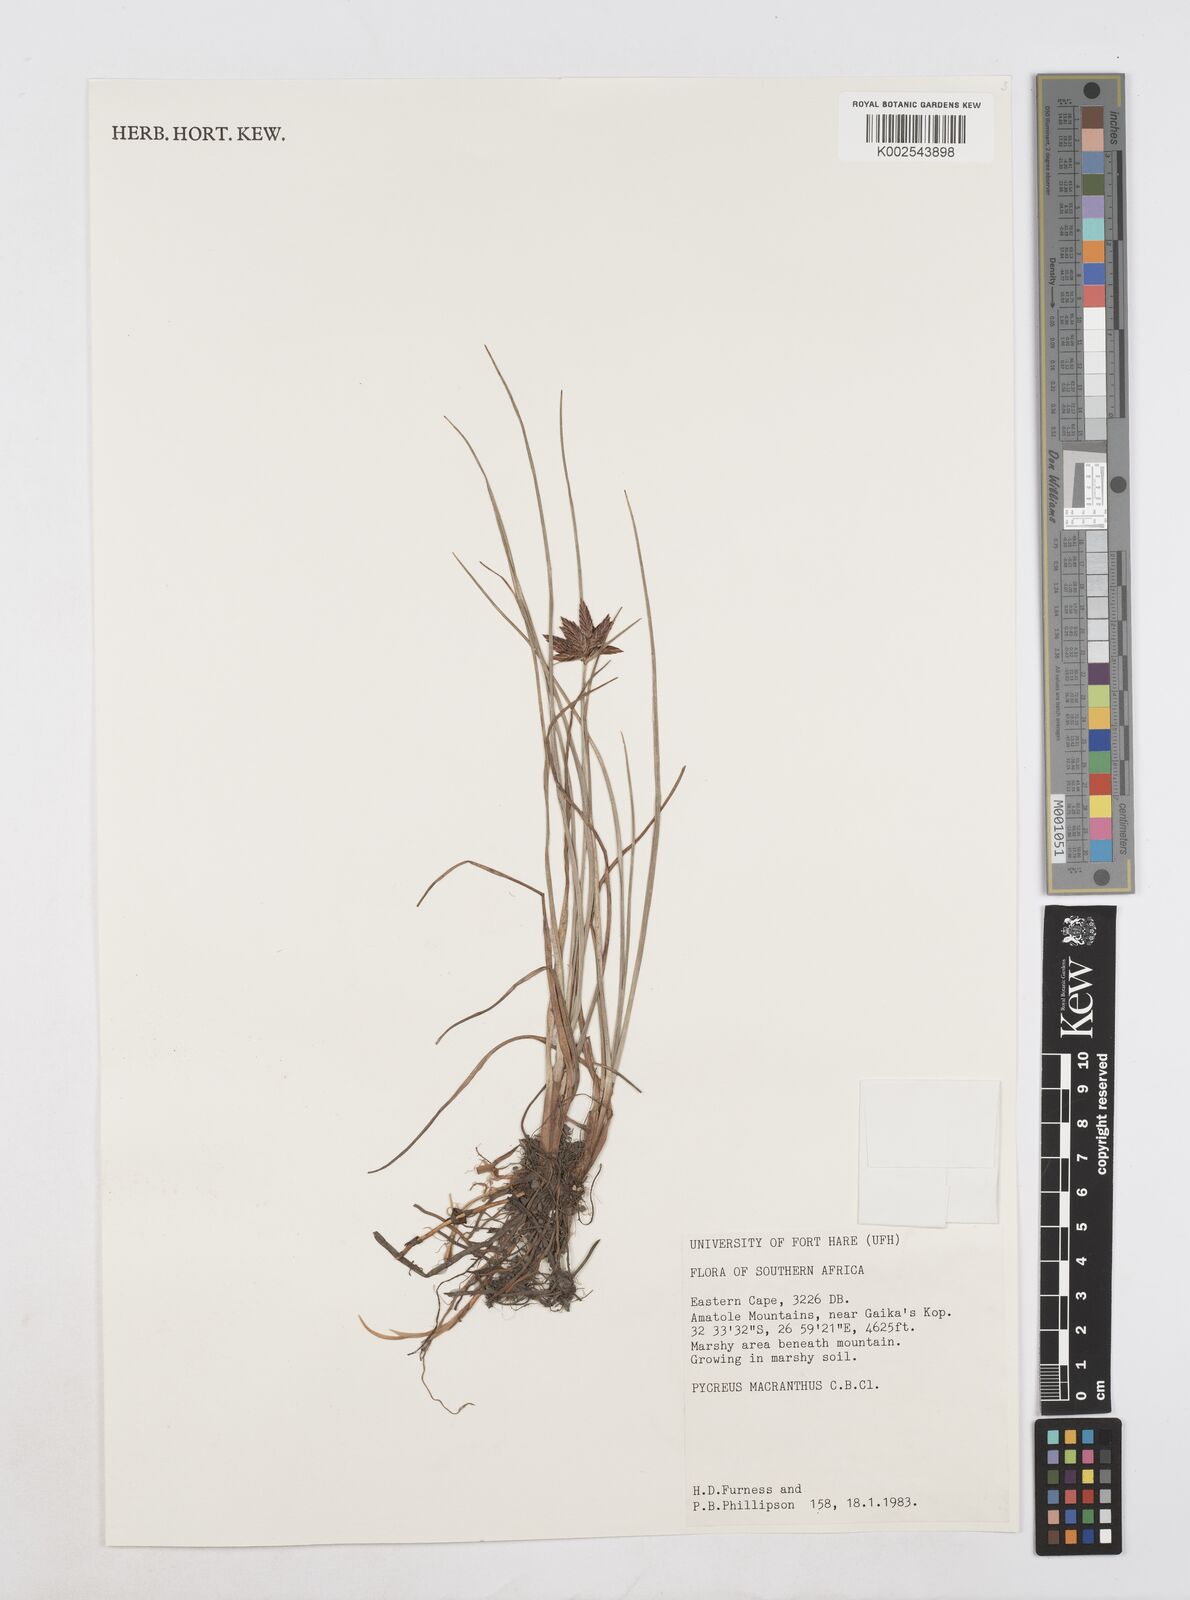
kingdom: Plantae
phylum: Tracheophyta
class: Liliopsida
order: Poales
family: Cyperaceae
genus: Cyperus
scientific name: Cyperus nigricans
